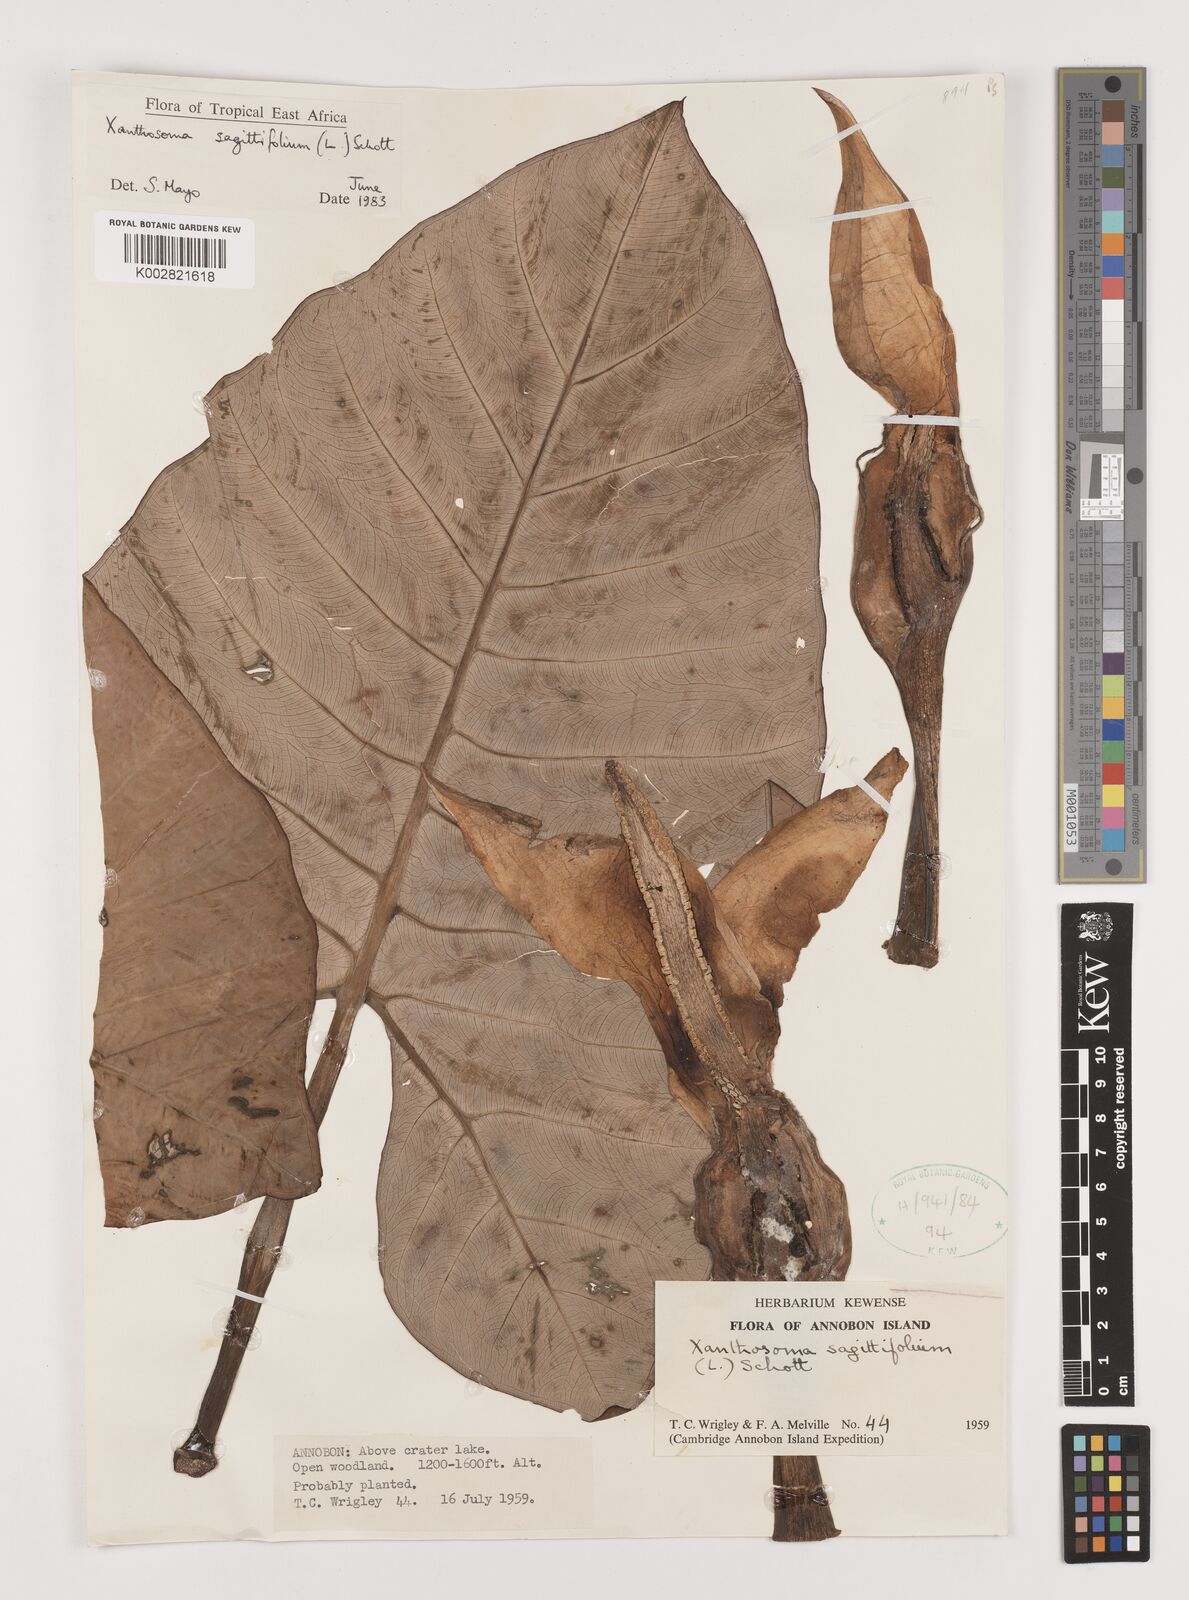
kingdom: Plantae
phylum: Tracheophyta
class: Liliopsida
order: Alismatales
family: Araceae
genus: Xanthosoma
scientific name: Xanthosoma sagittifolium
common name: Arrowleaf elephant's ear
